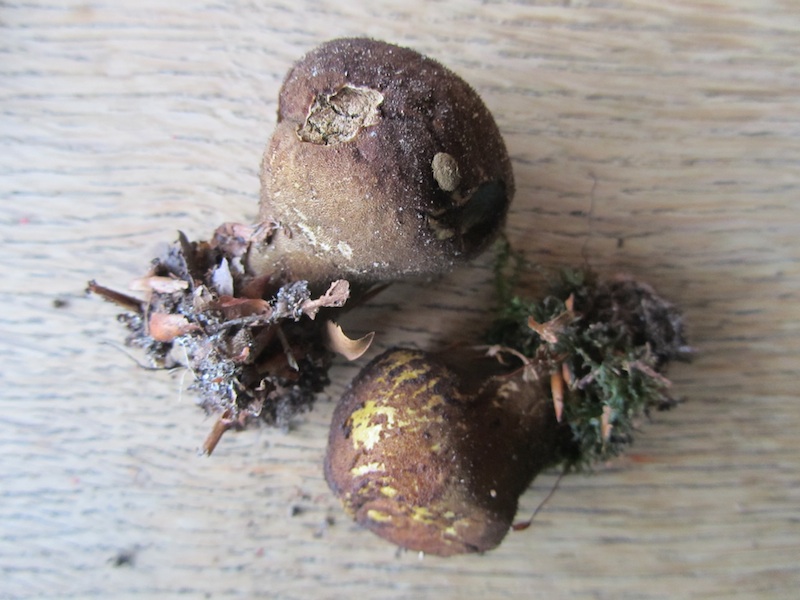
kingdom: Fungi
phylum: Basidiomycota
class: Agaricomycetes
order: Agaricales
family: Lycoperdaceae
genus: Lycoperdon
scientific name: Lycoperdon umbrinum
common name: umbrabrun støvbold
